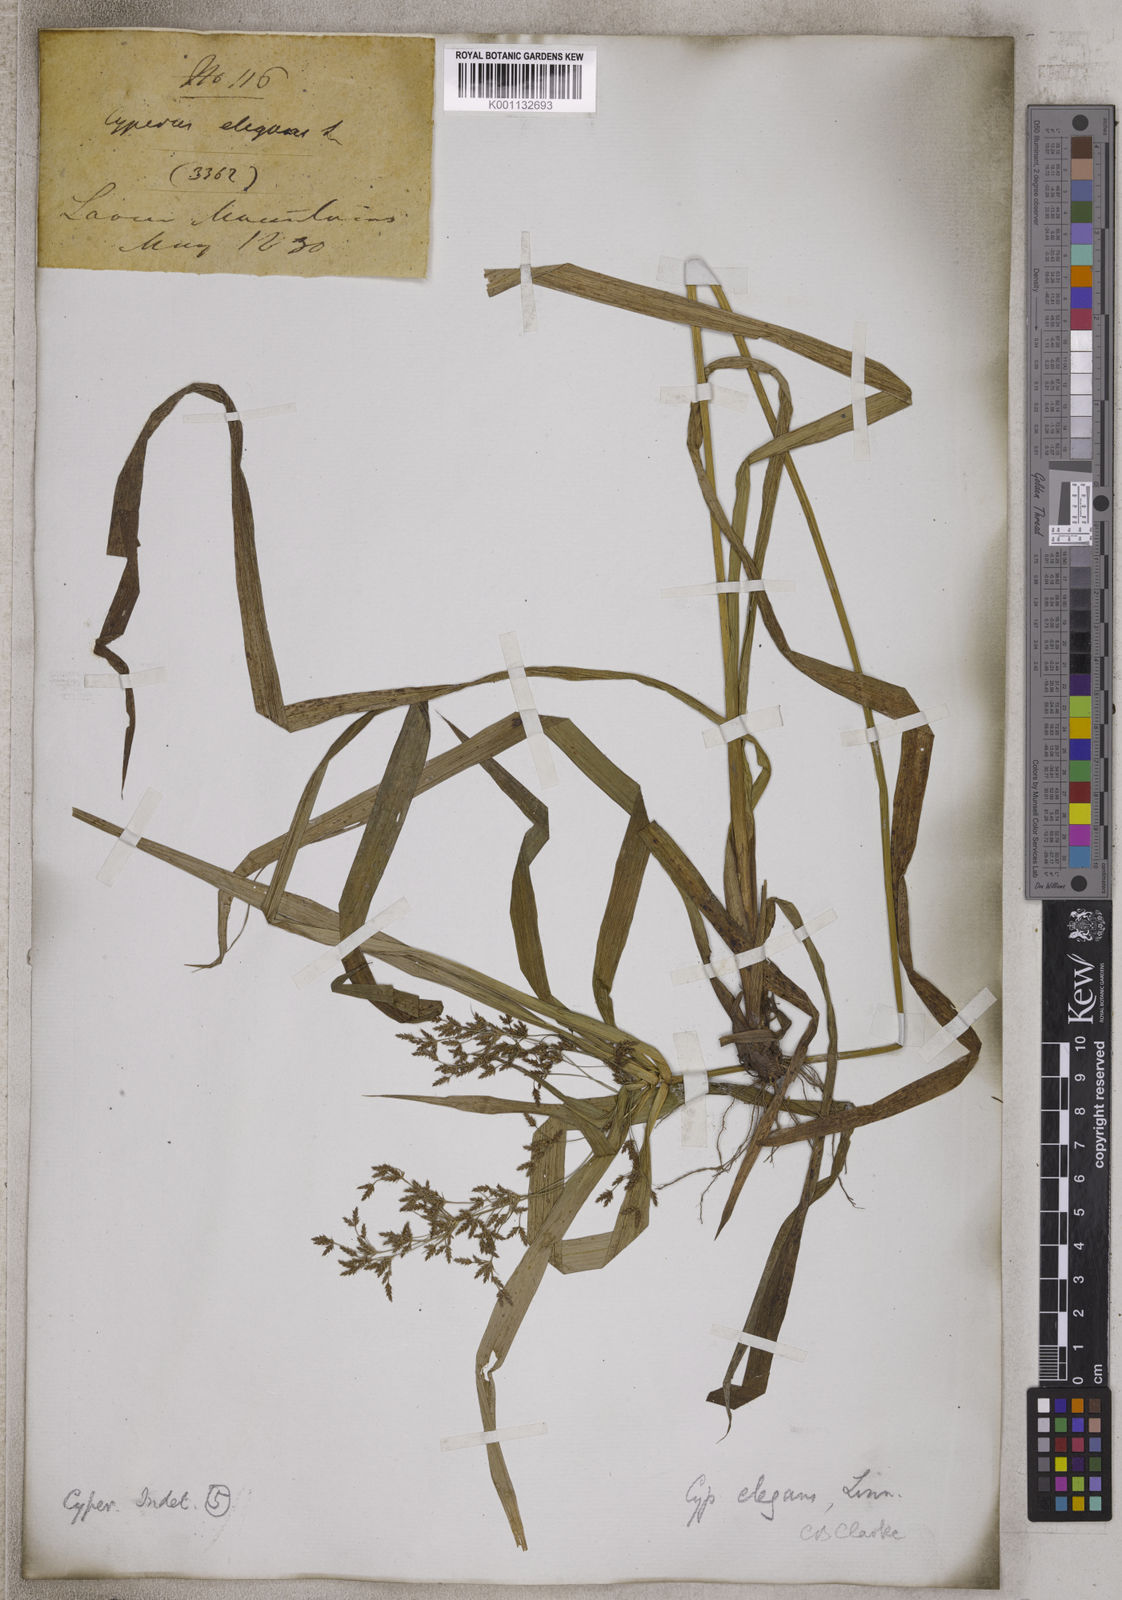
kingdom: Plantae
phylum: Tracheophyta
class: Liliopsida
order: Poales
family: Cyperaceae
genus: Cyperus
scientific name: Cyperus elegans
